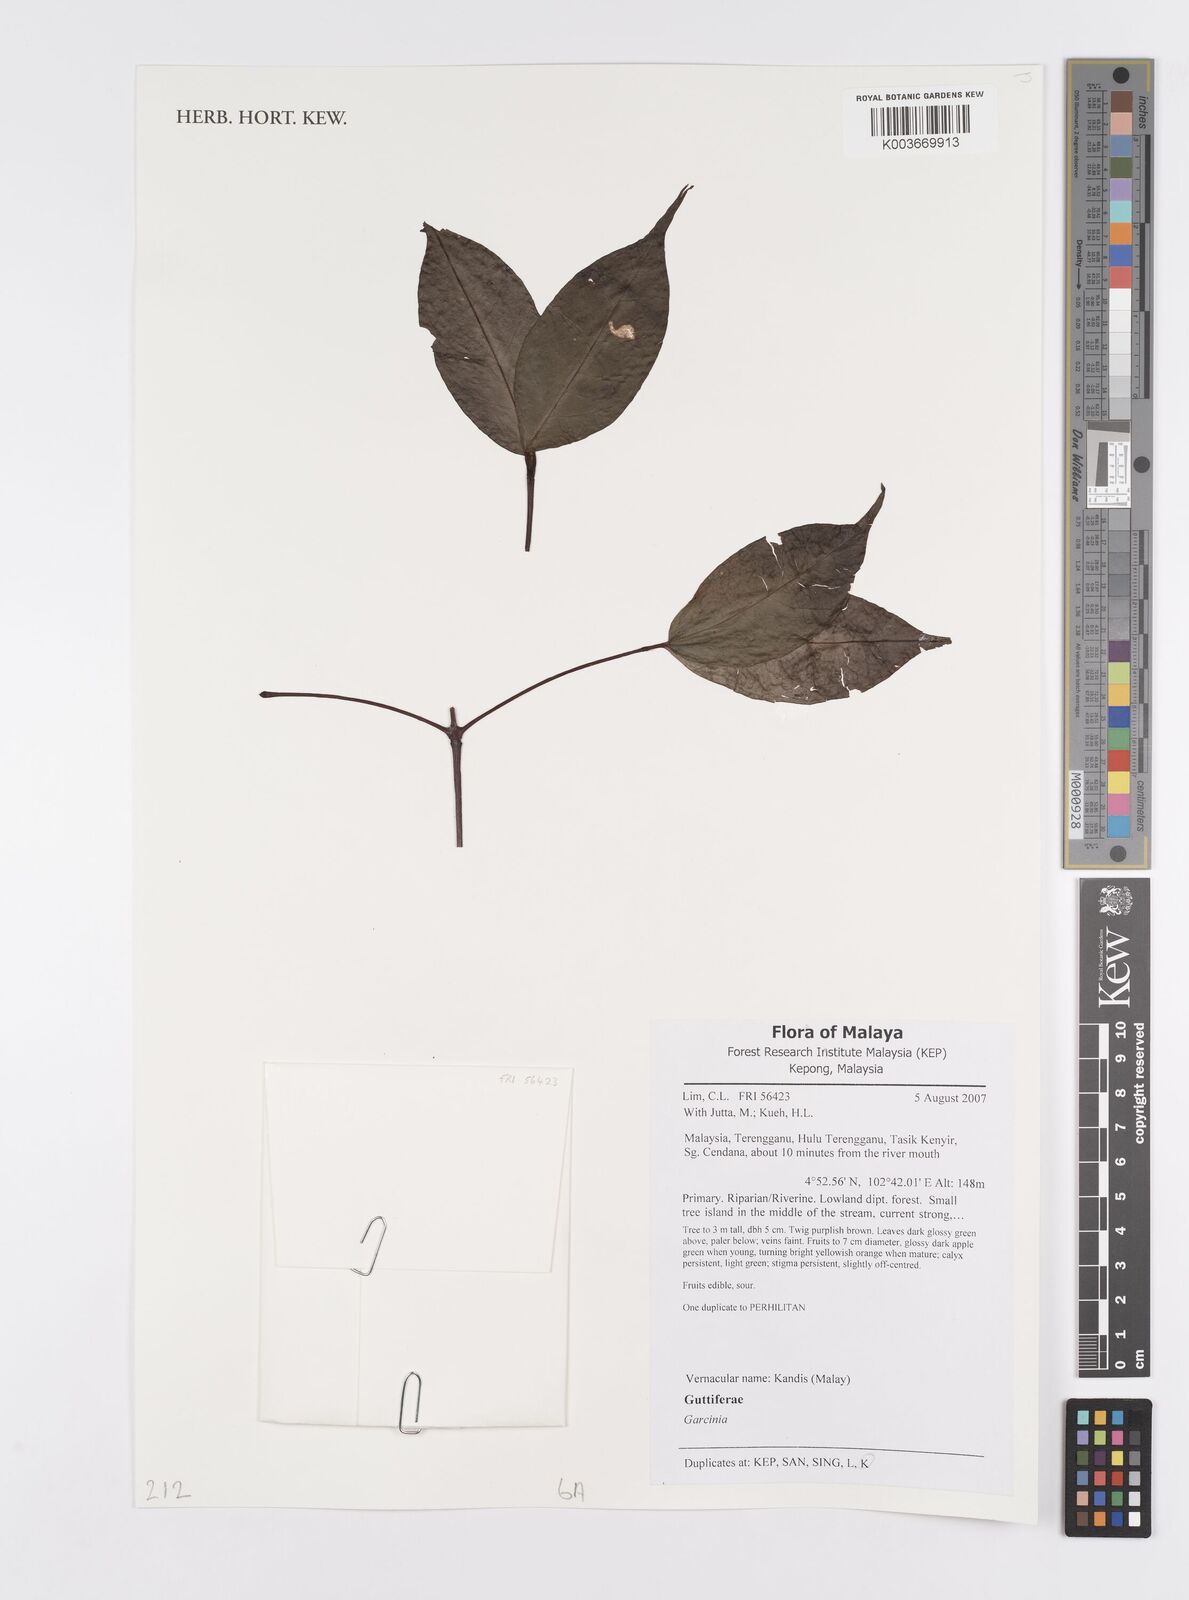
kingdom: Plantae
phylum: Tracheophyta
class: Magnoliopsida
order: Malpighiales
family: Clusiaceae
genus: Garcinia
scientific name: Garcinia
